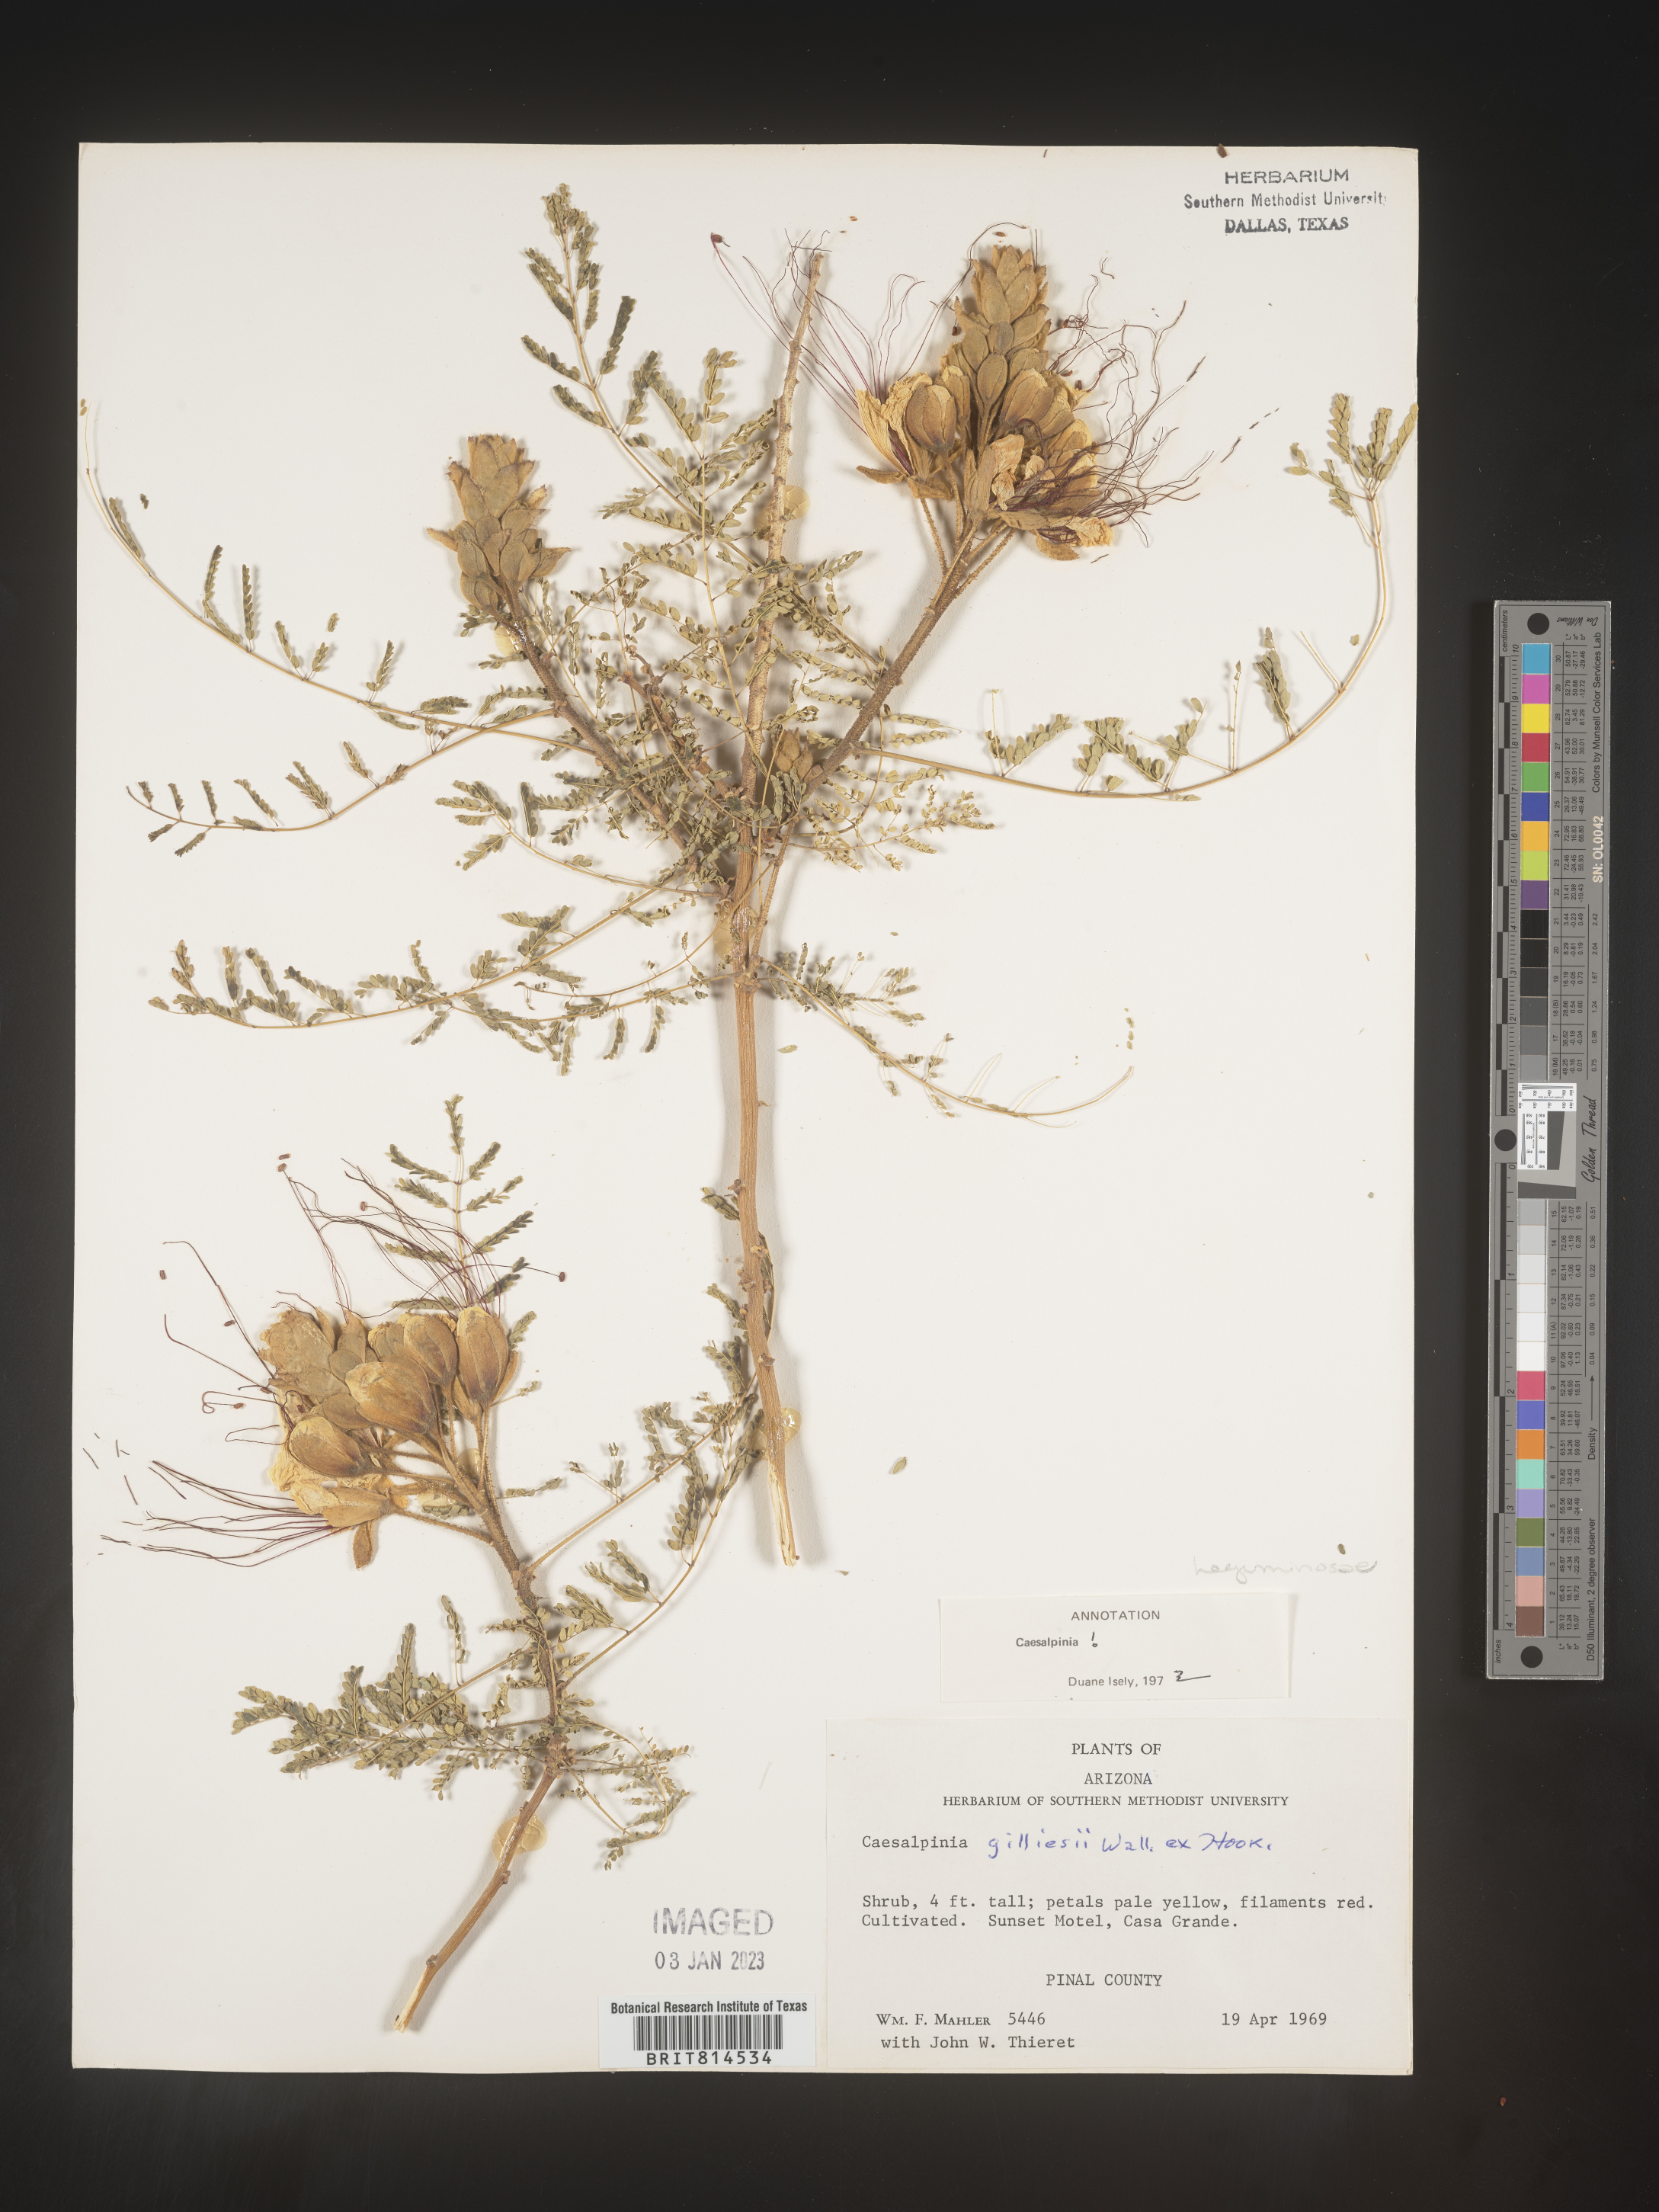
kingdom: Plantae
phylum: Tracheophyta
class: Magnoliopsida
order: Fabales
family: Fabaceae
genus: Caesalpinia
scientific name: Caesalpinia
